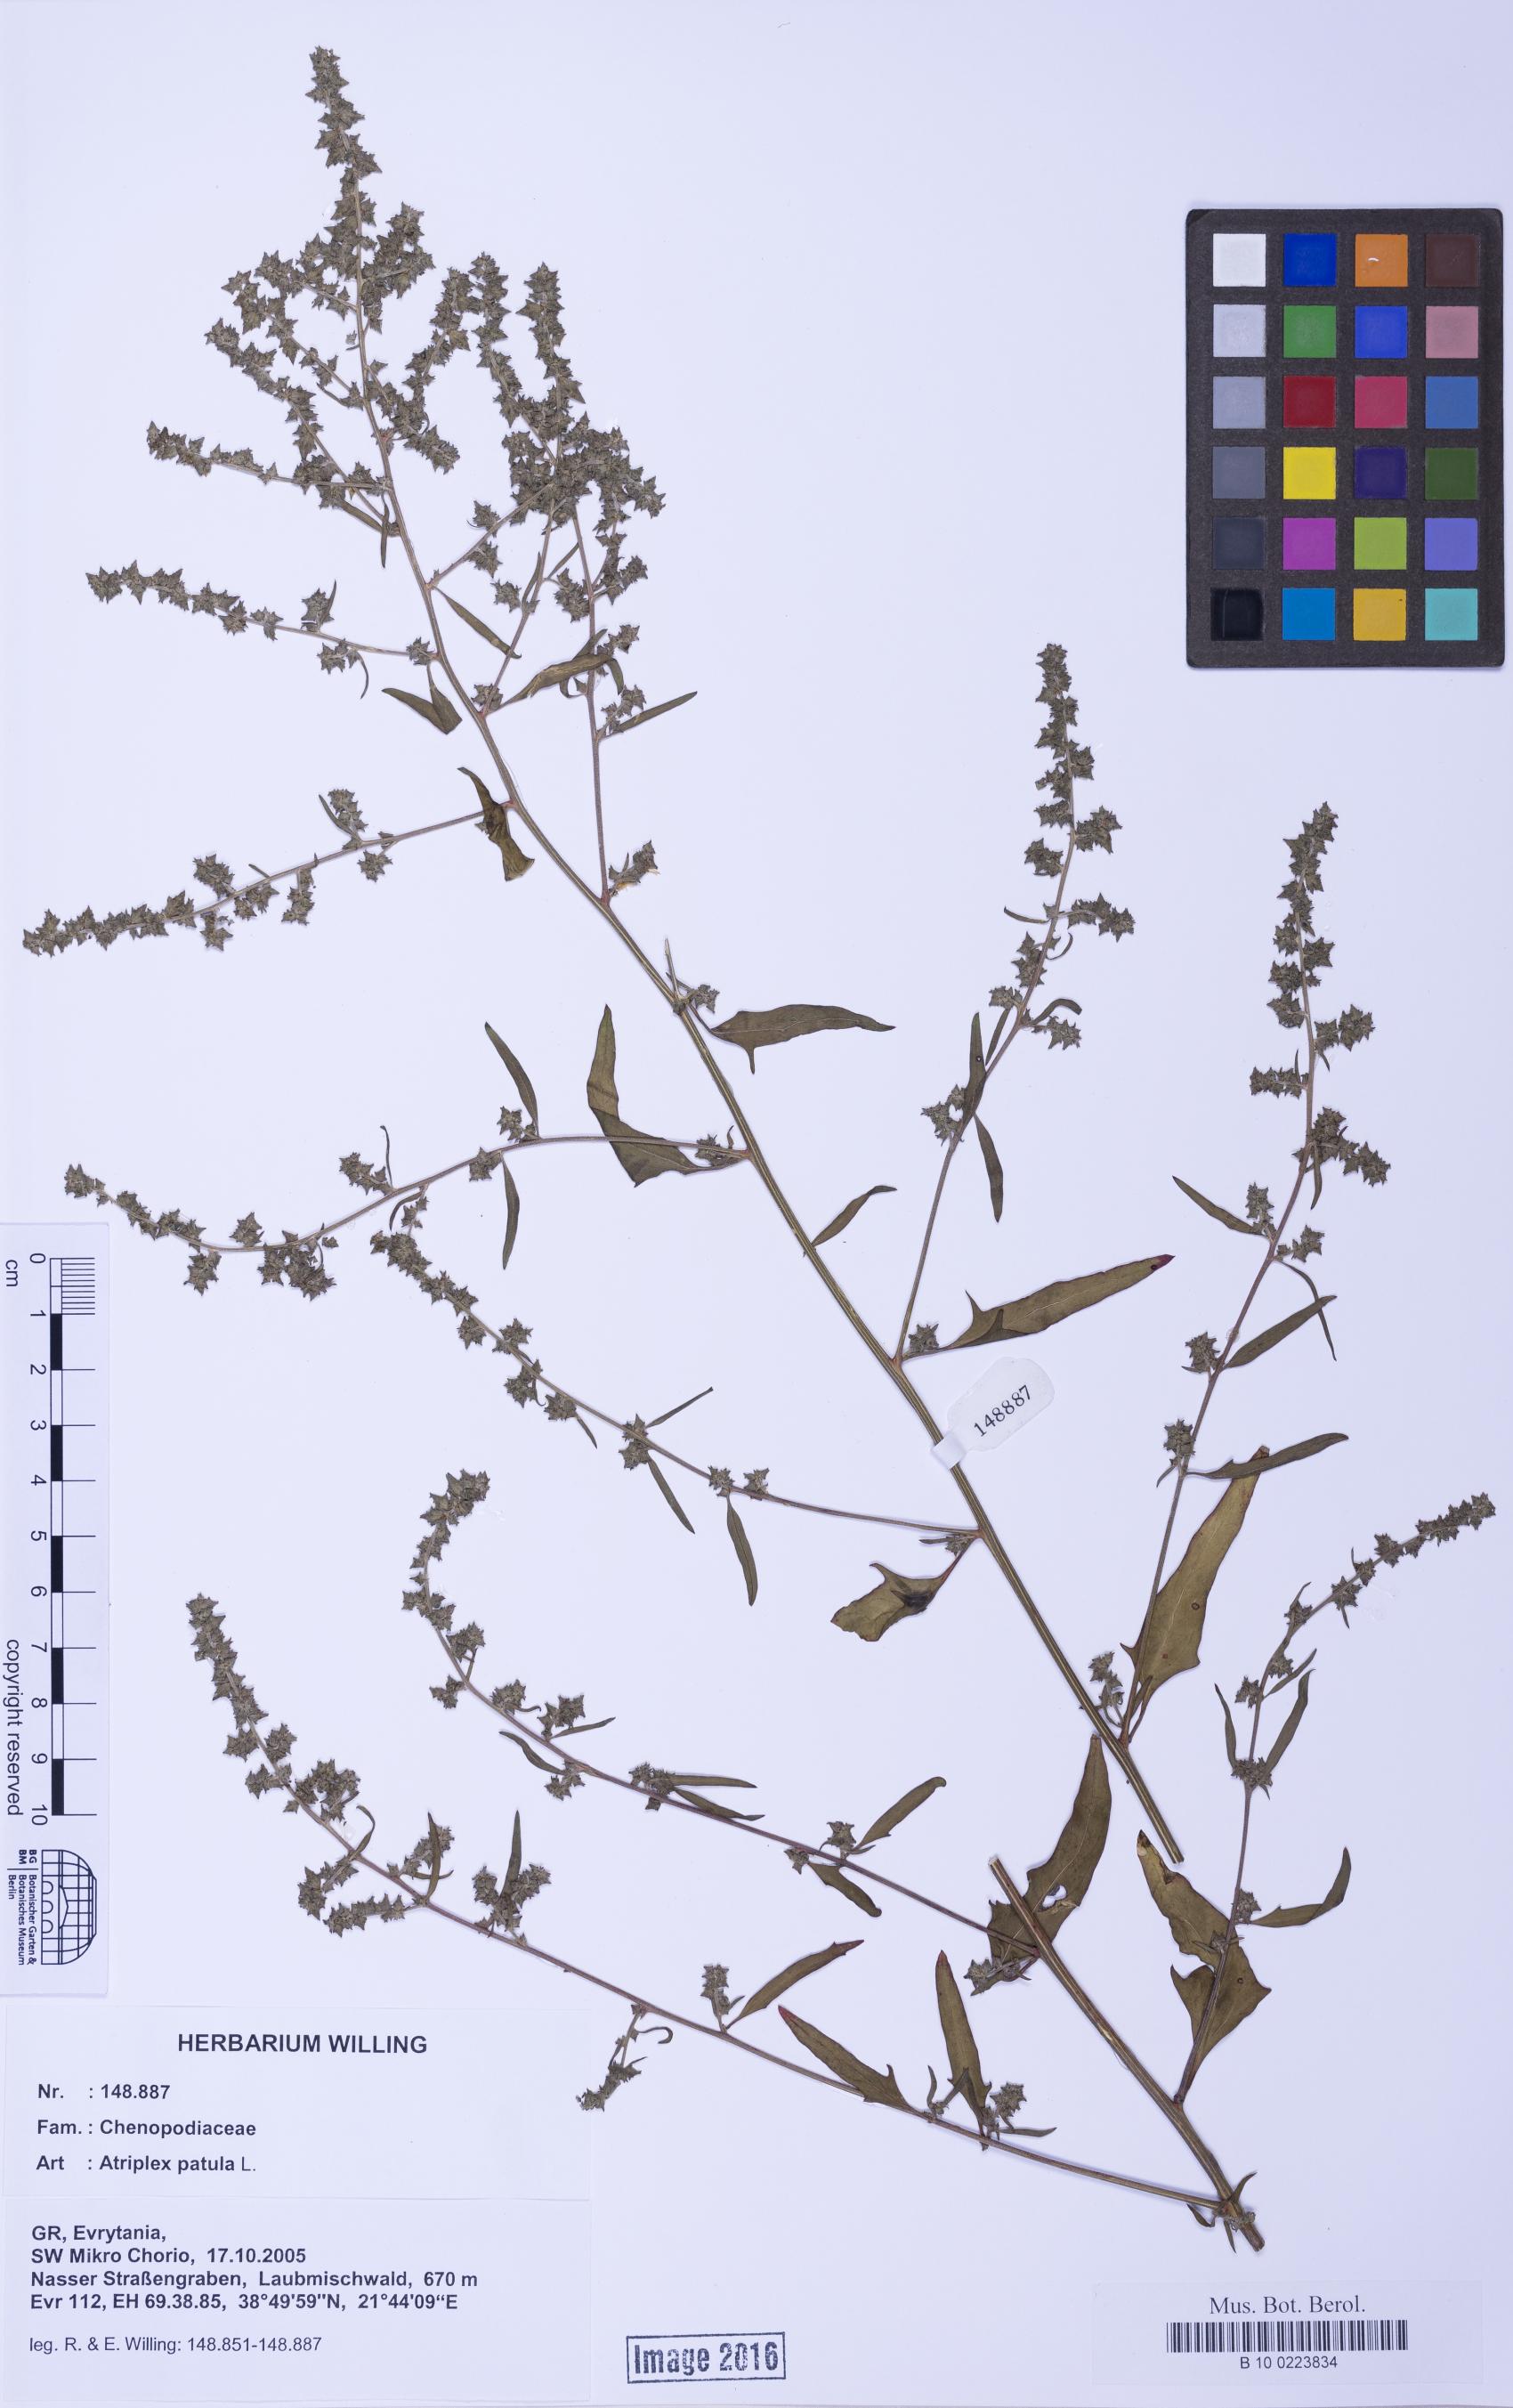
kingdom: Plantae
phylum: Tracheophyta
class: Magnoliopsida
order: Caryophyllales
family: Amaranthaceae
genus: Atriplex
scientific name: Atriplex prostrata
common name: Spear-leaved orache
